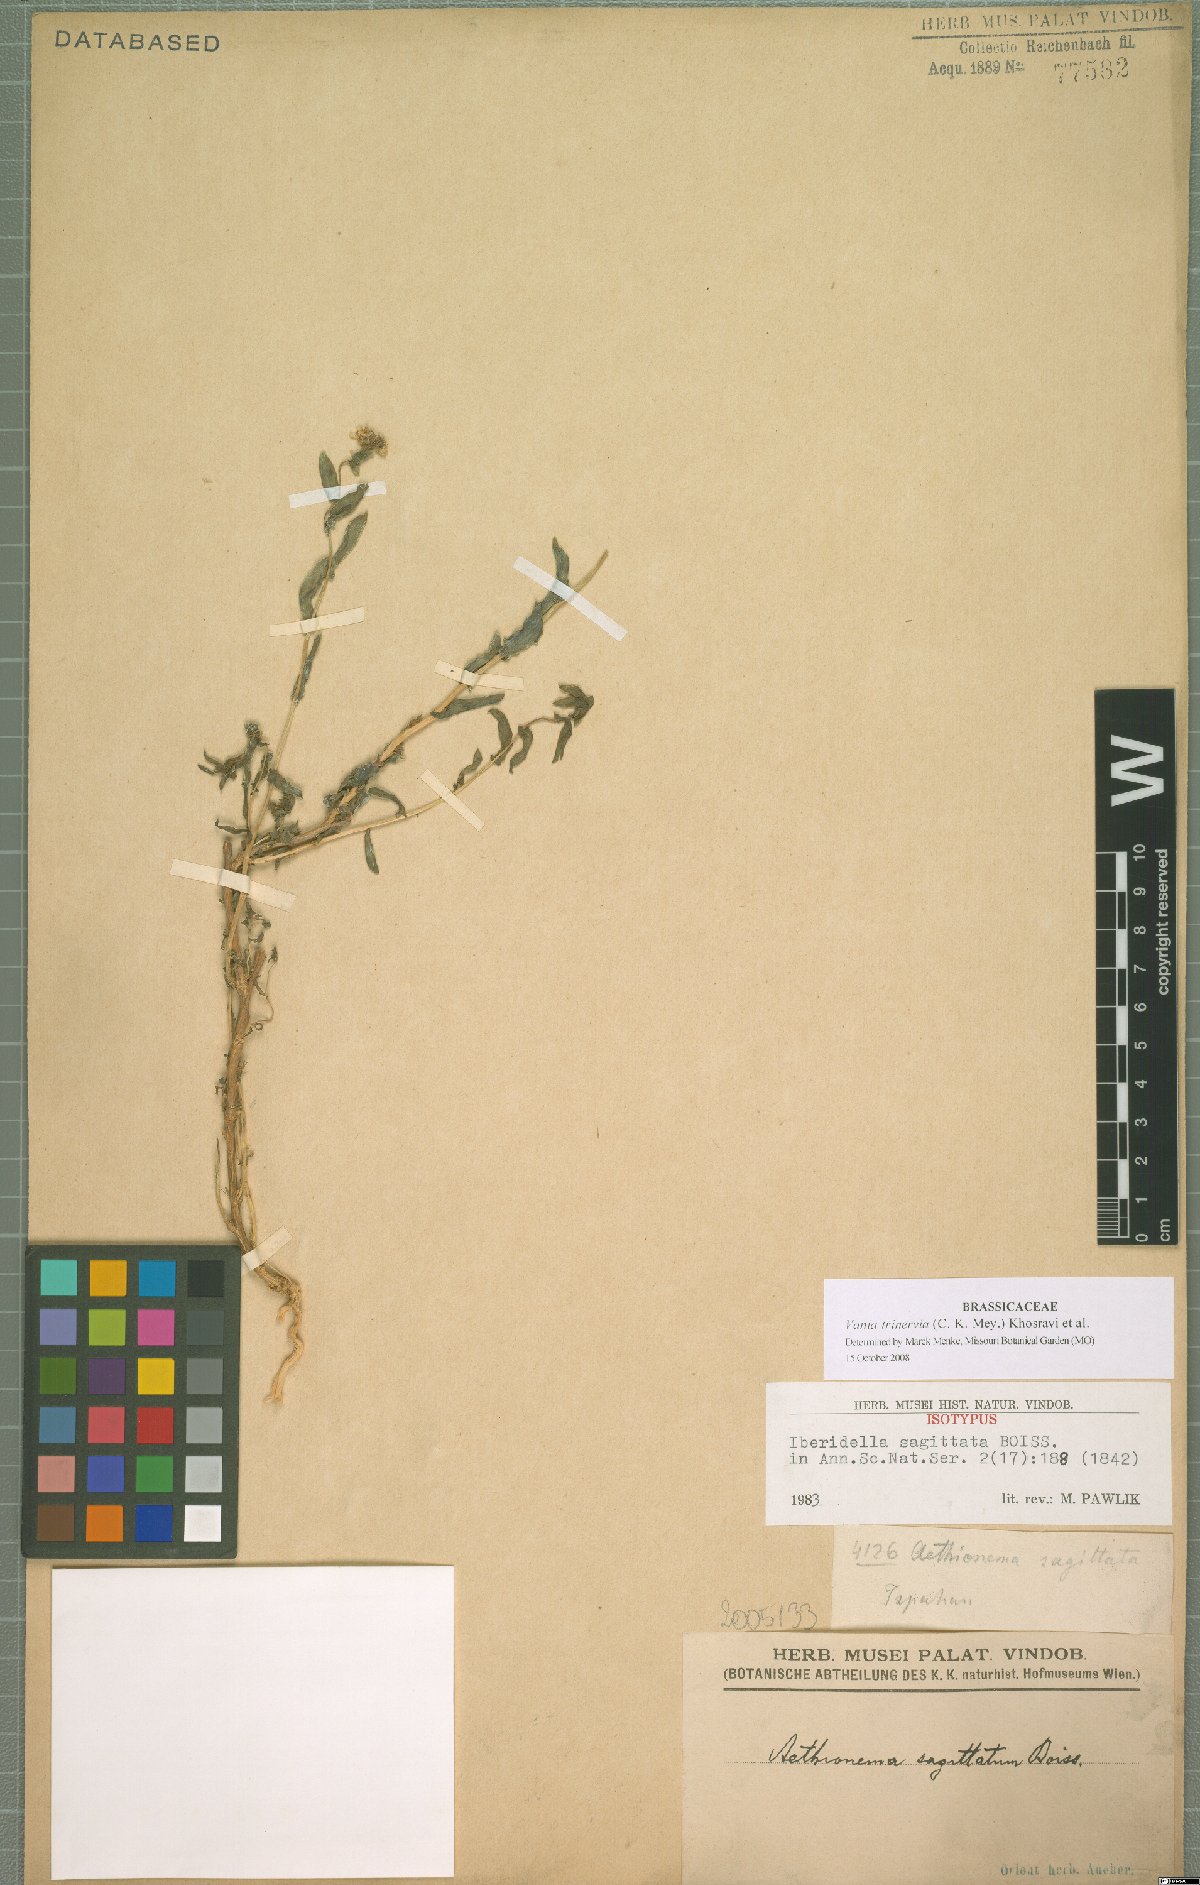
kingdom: Plantae
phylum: Tracheophyta
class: Magnoliopsida
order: Brassicales
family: Brassicaceae
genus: Noccaea
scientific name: Noccaea trinervia
